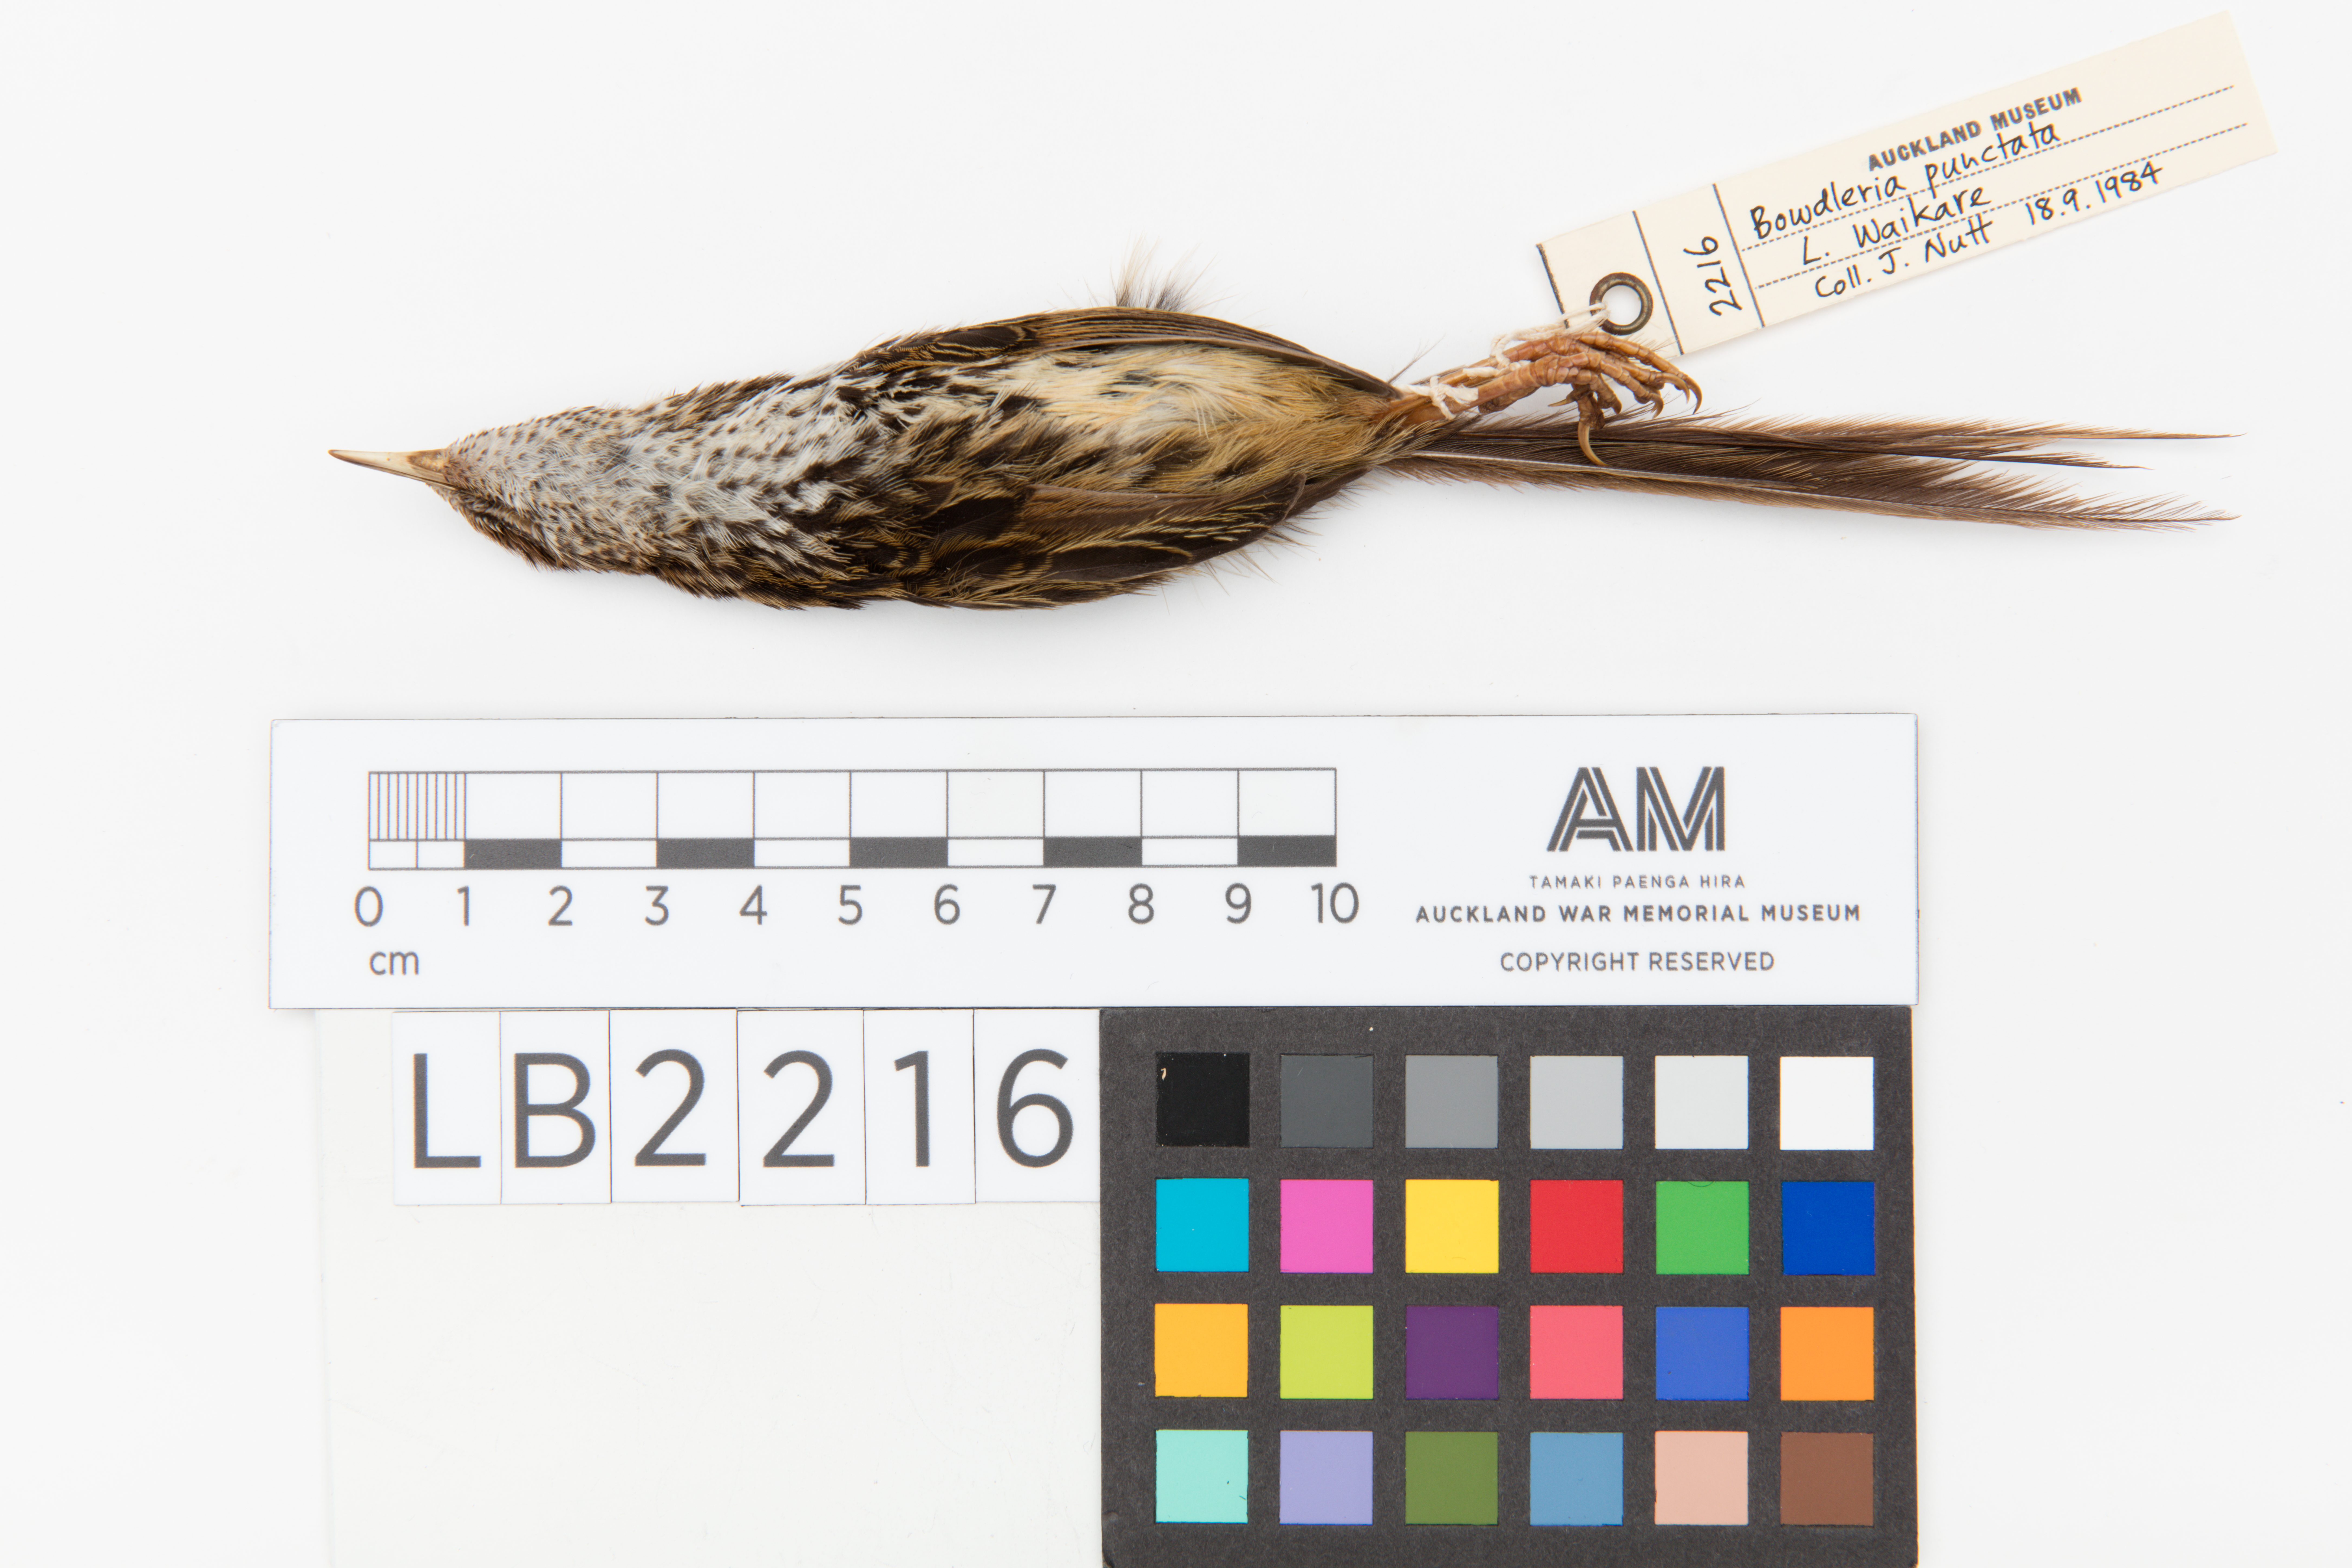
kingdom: Animalia
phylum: Chordata
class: Aves
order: Passeriformes
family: Locustellidae
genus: Megalurus
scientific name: Megalurus punctatus
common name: New zealand fernbird
